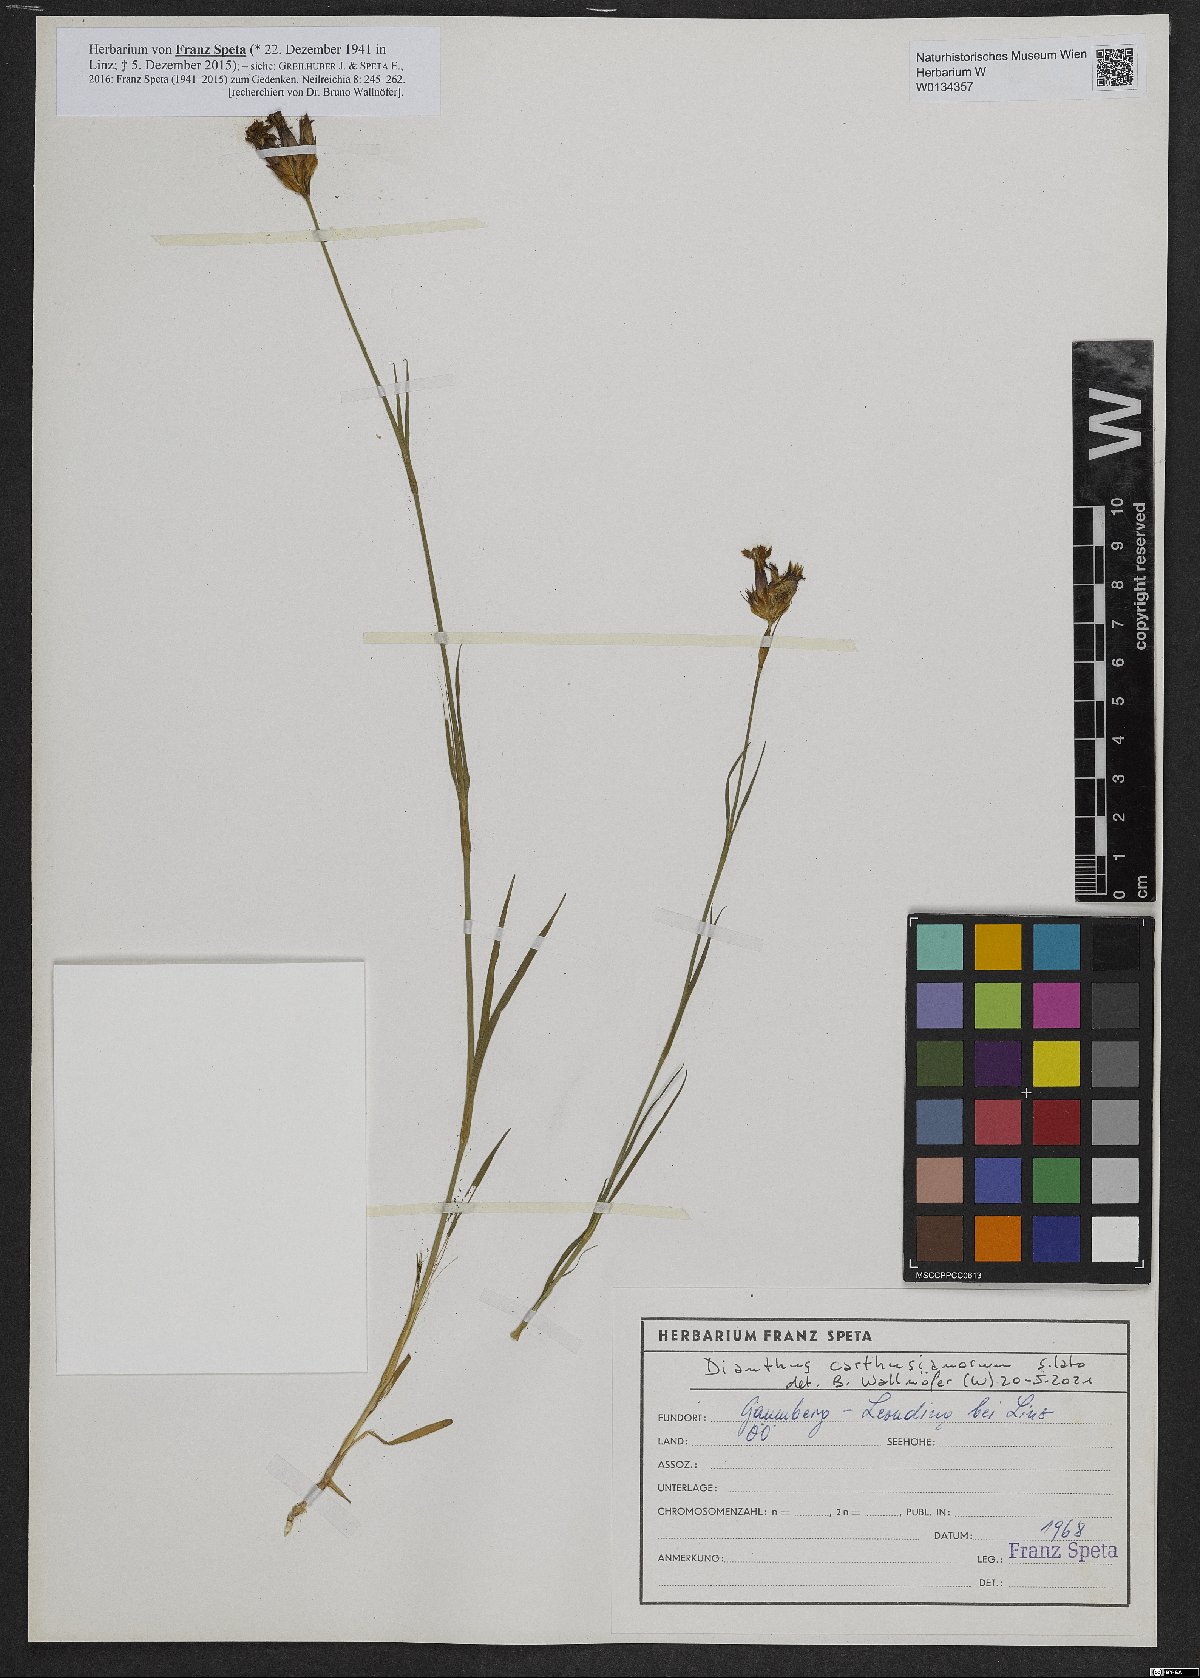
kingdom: Plantae
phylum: Tracheophyta
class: Magnoliopsida
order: Caryophyllales
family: Caryophyllaceae
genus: Dianthus
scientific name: Dianthus carthusianorum
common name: Carthusian pink
